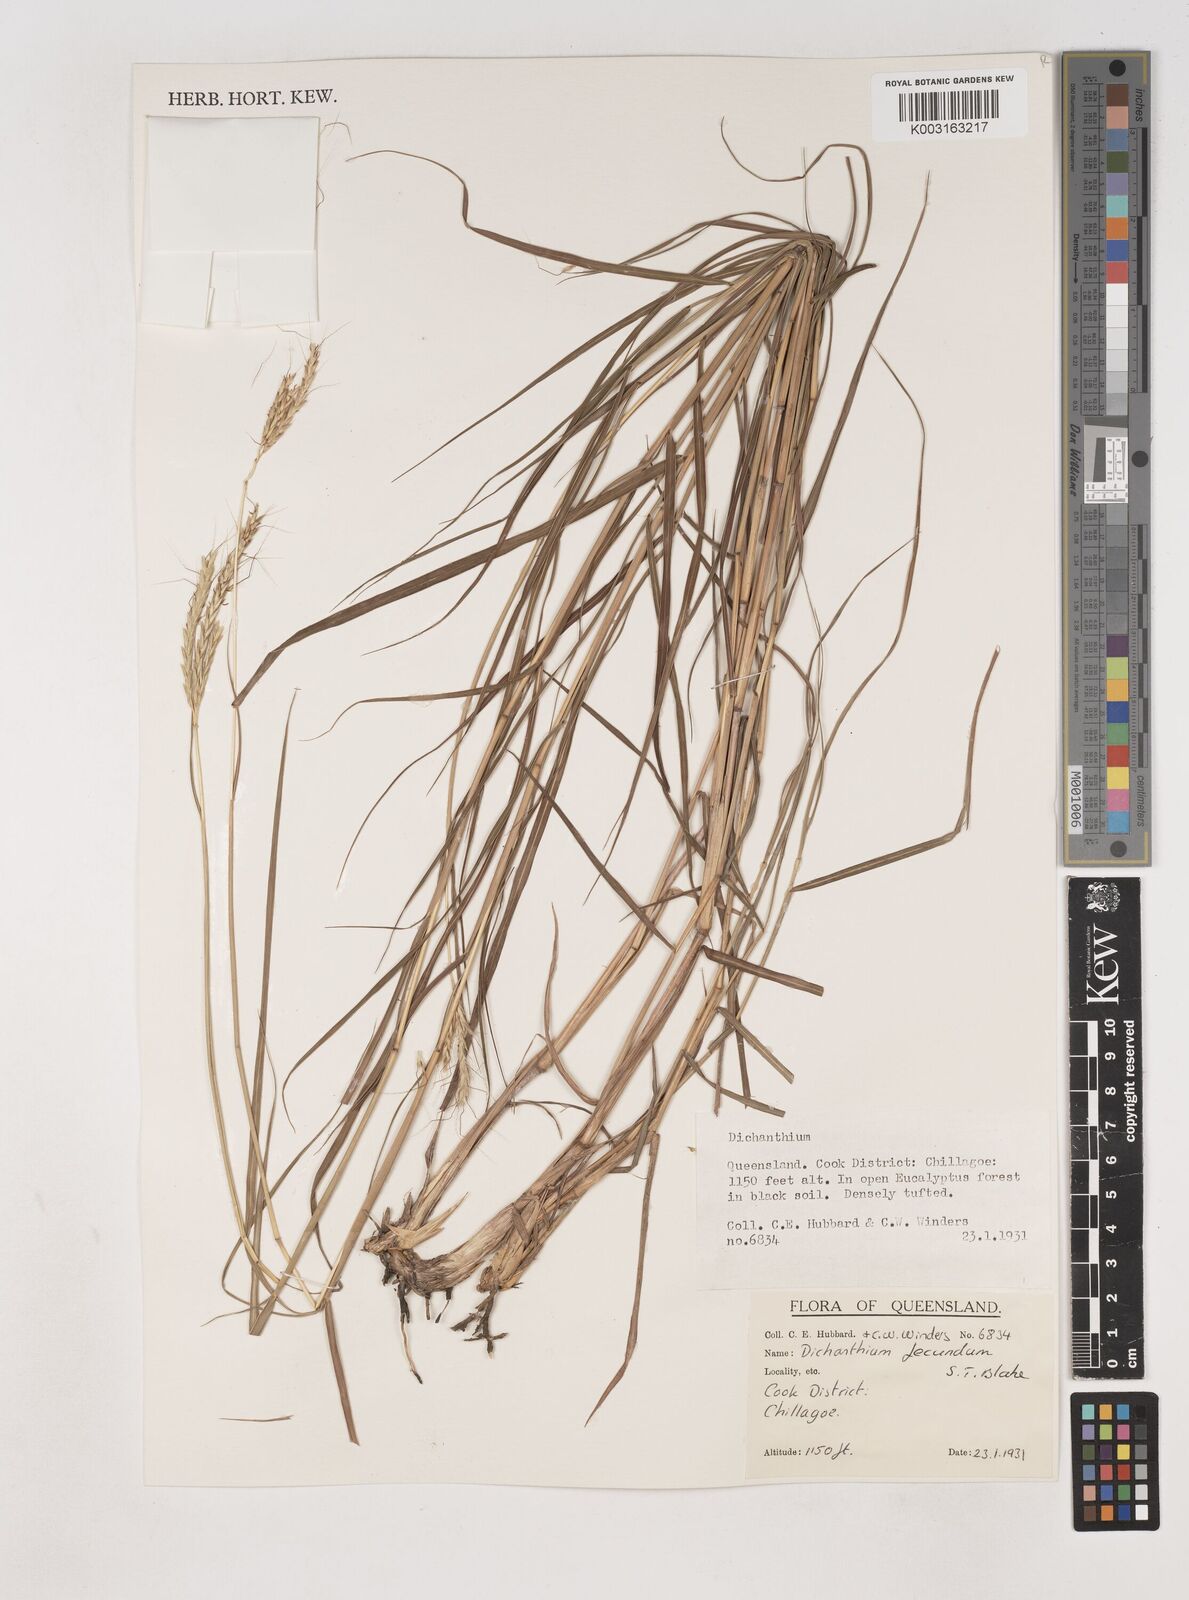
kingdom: Plantae
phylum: Tracheophyta
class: Liliopsida
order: Poales
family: Poaceae
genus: Dichanthium
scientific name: Dichanthium fecundum
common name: Bundle-bundle
